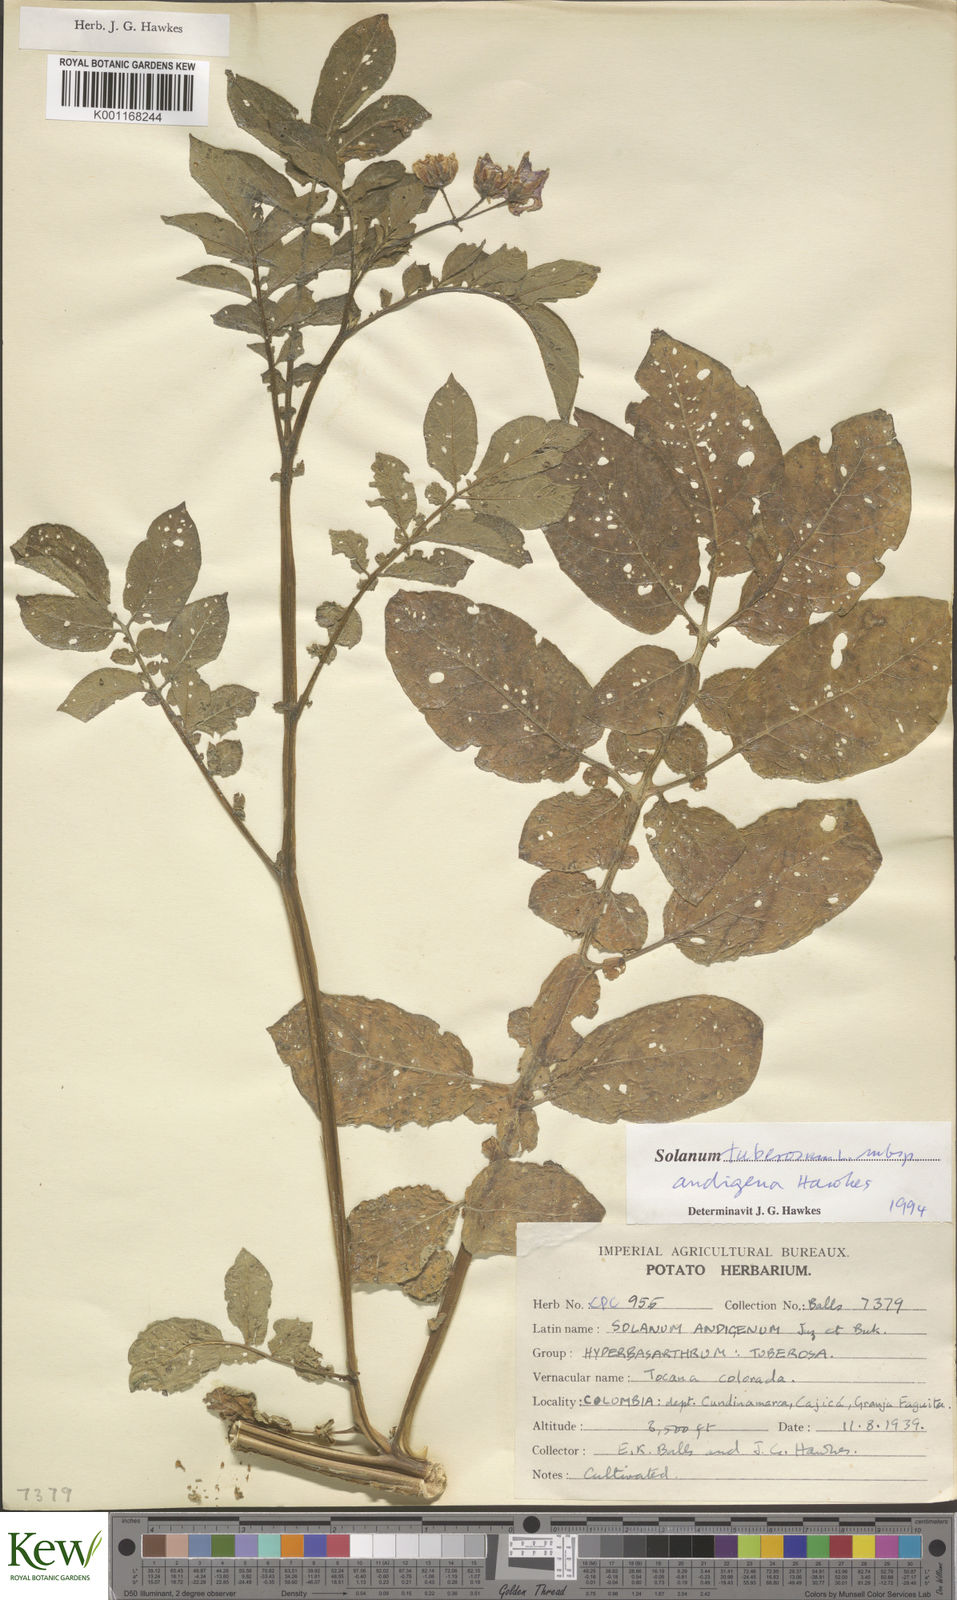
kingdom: Plantae
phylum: Tracheophyta
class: Magnoliopsida
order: Solanales
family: Solanaceae
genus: Solanum
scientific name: Solanum tuberosum
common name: Potato
